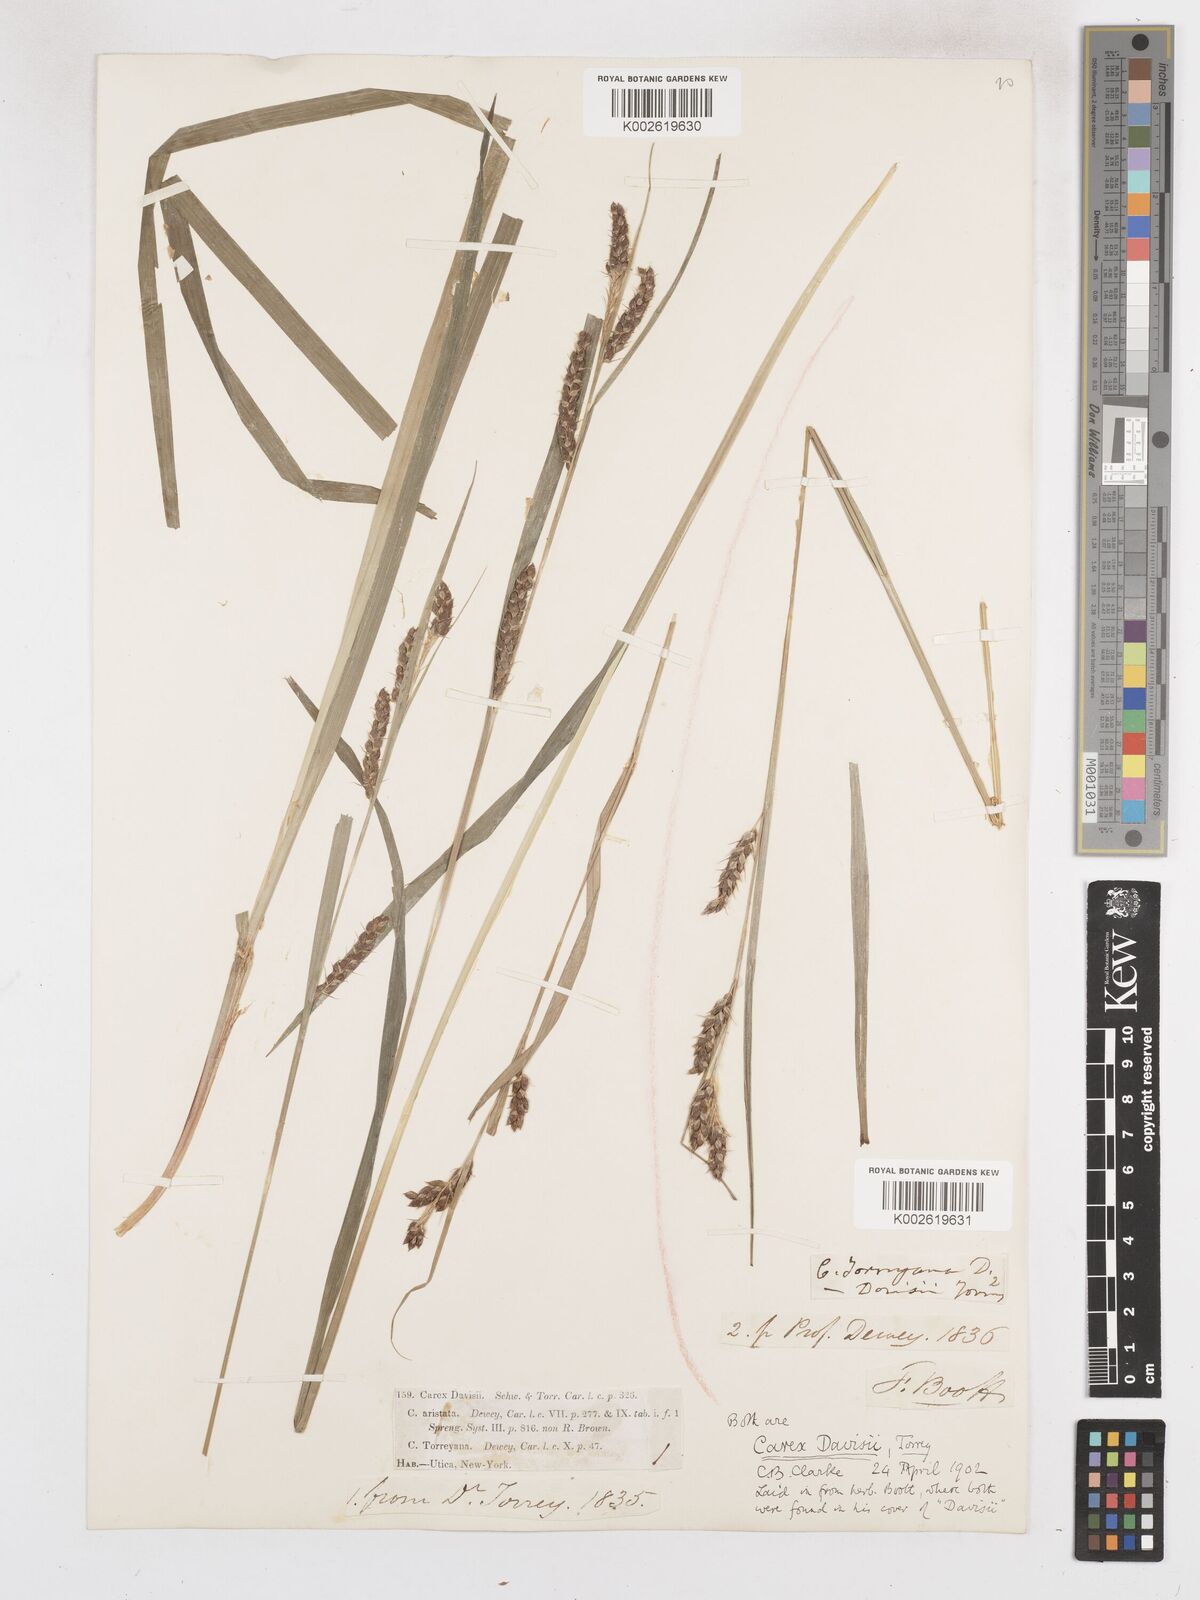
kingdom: Plantae
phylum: Tracheophyta
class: Liliopsida
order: Poales
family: Cyperaceae
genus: Carex
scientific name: Carex davisii
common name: Davis' sedge
